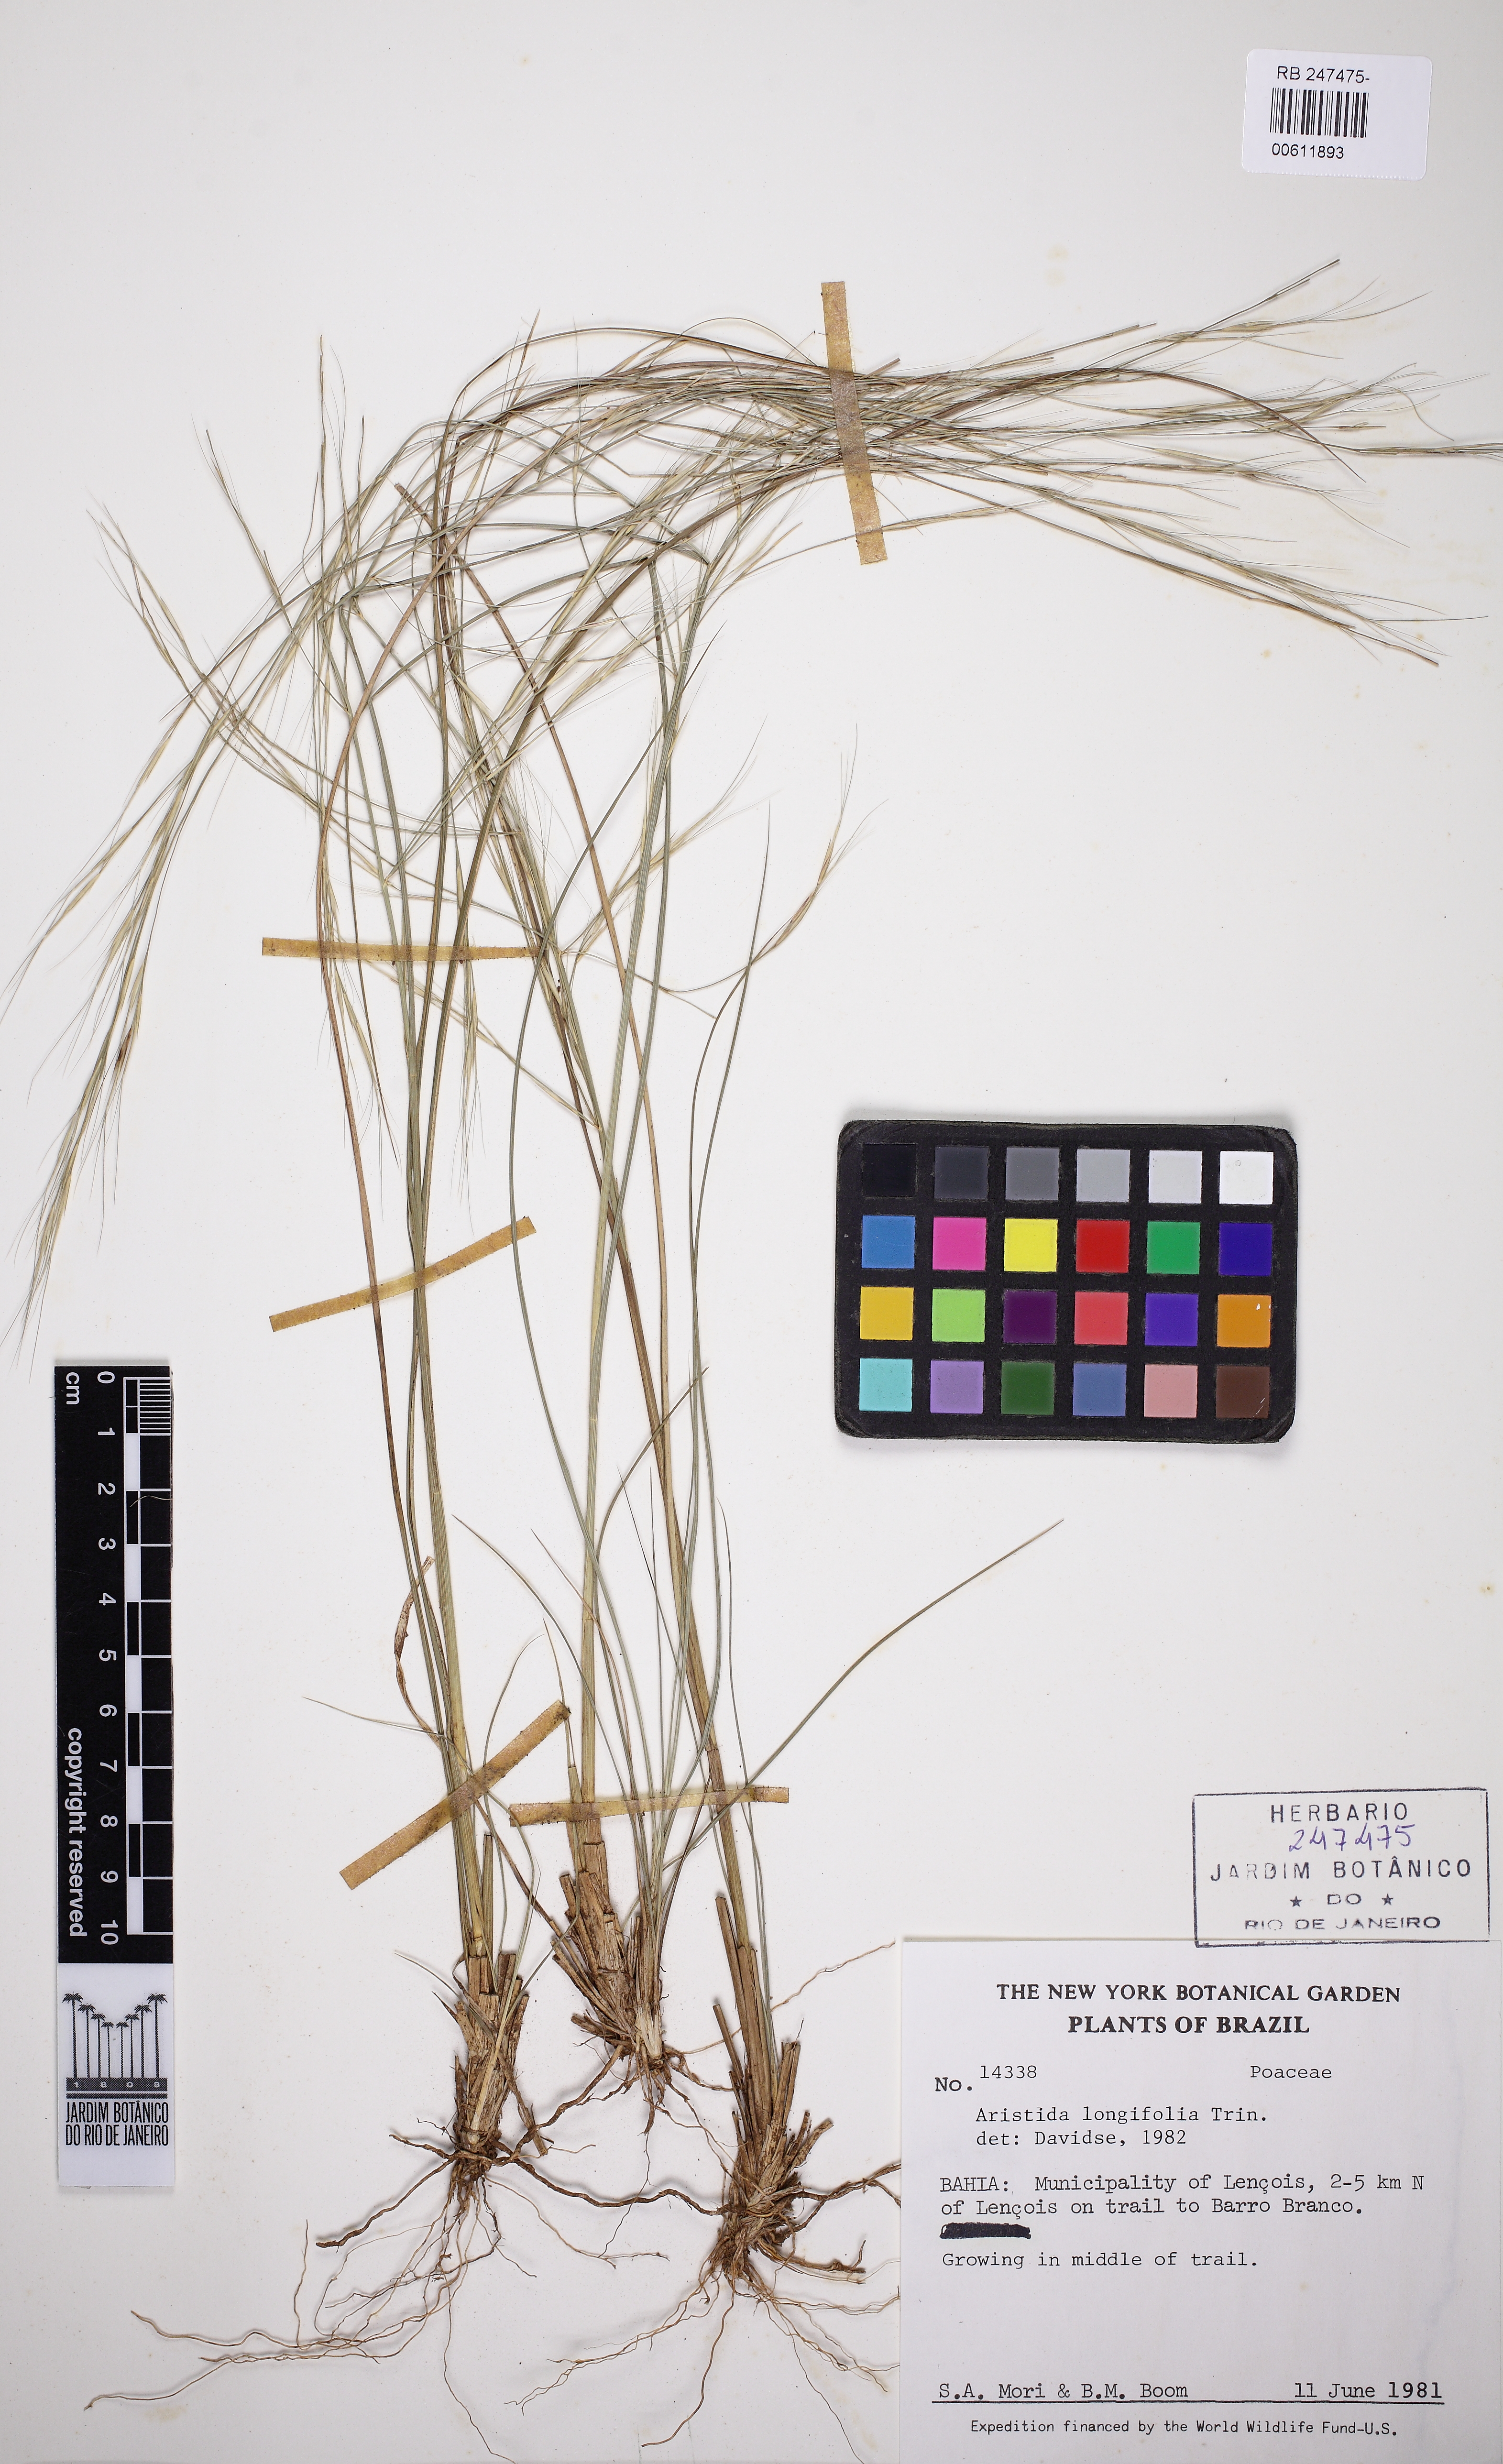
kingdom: Plantae
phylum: Tracheophyta
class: Liliopsida
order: Poales
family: Poaceae
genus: Aristida
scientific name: Aristida longifolia
